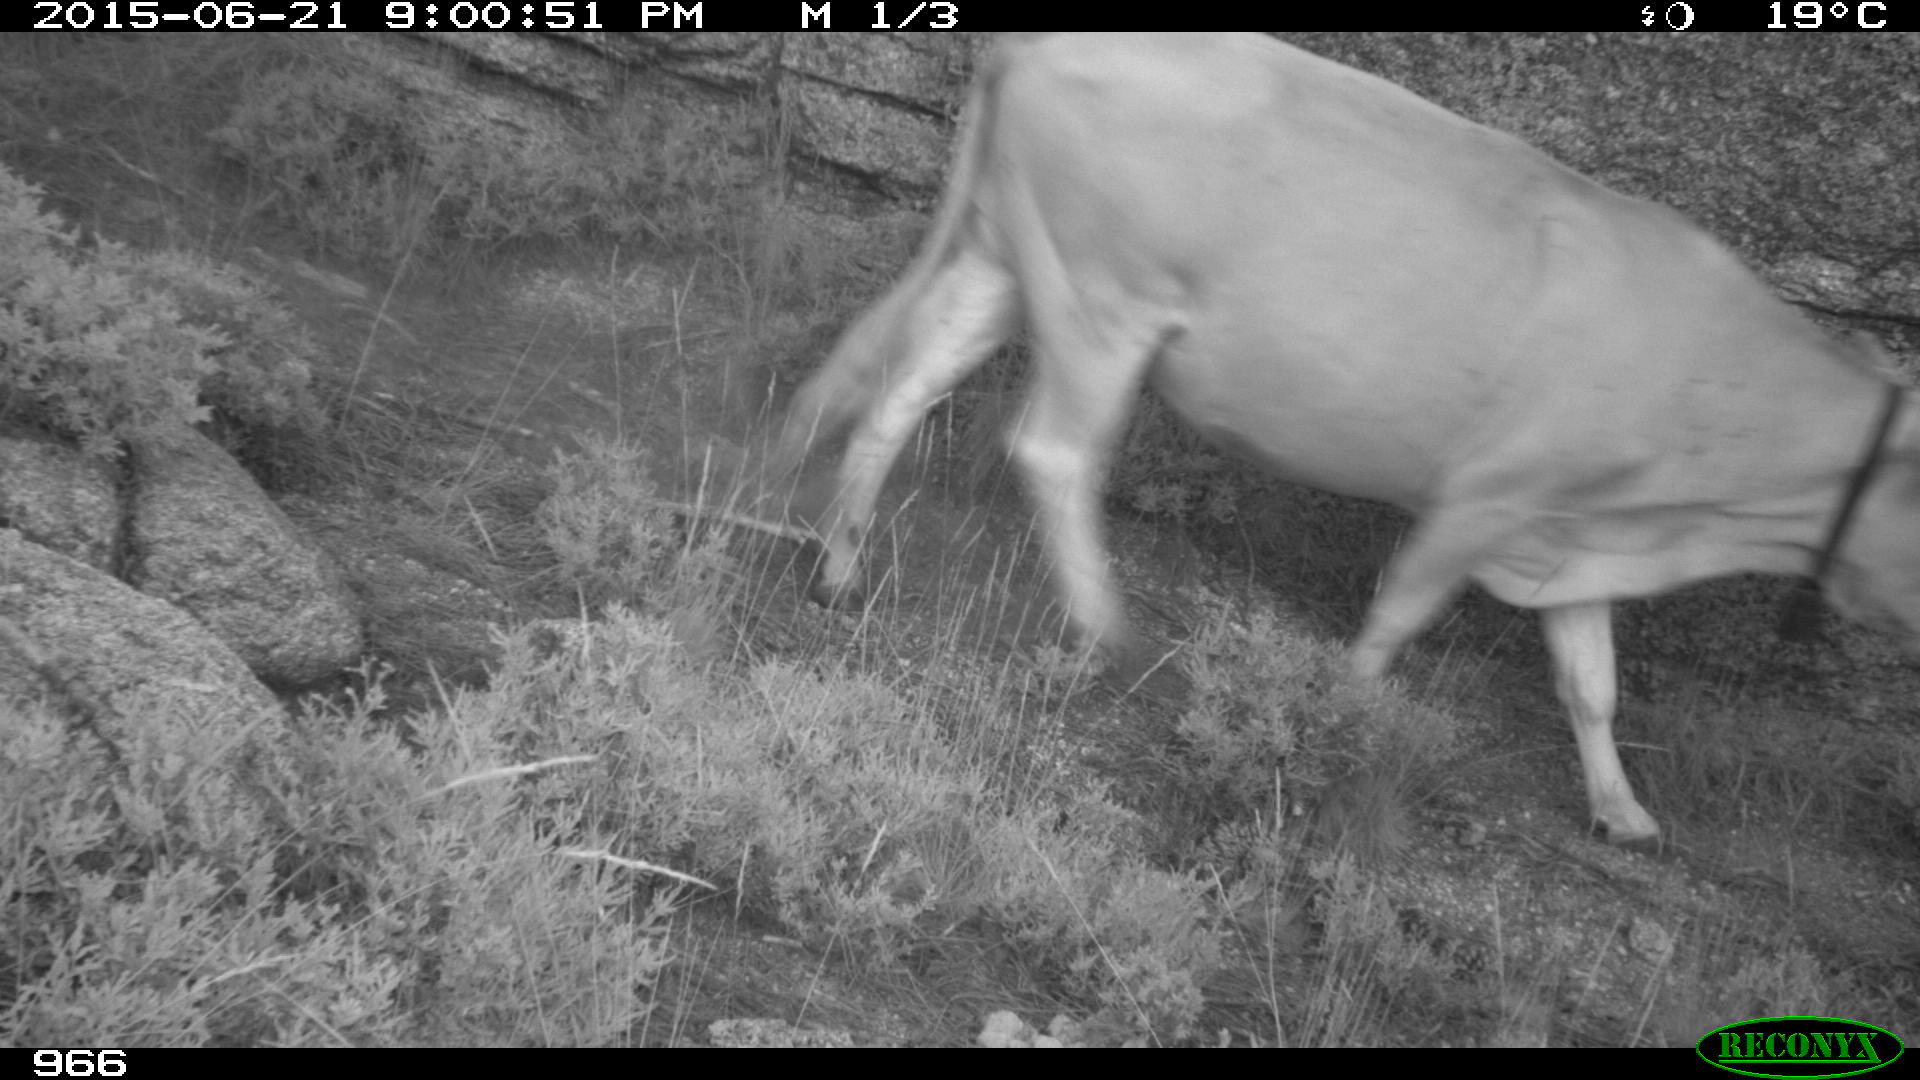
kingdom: Animalia
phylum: Chordata
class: Mammalia
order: Artiodactyla
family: Bovidae
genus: Bos
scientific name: Bos taurus
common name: Domesticated cattle
